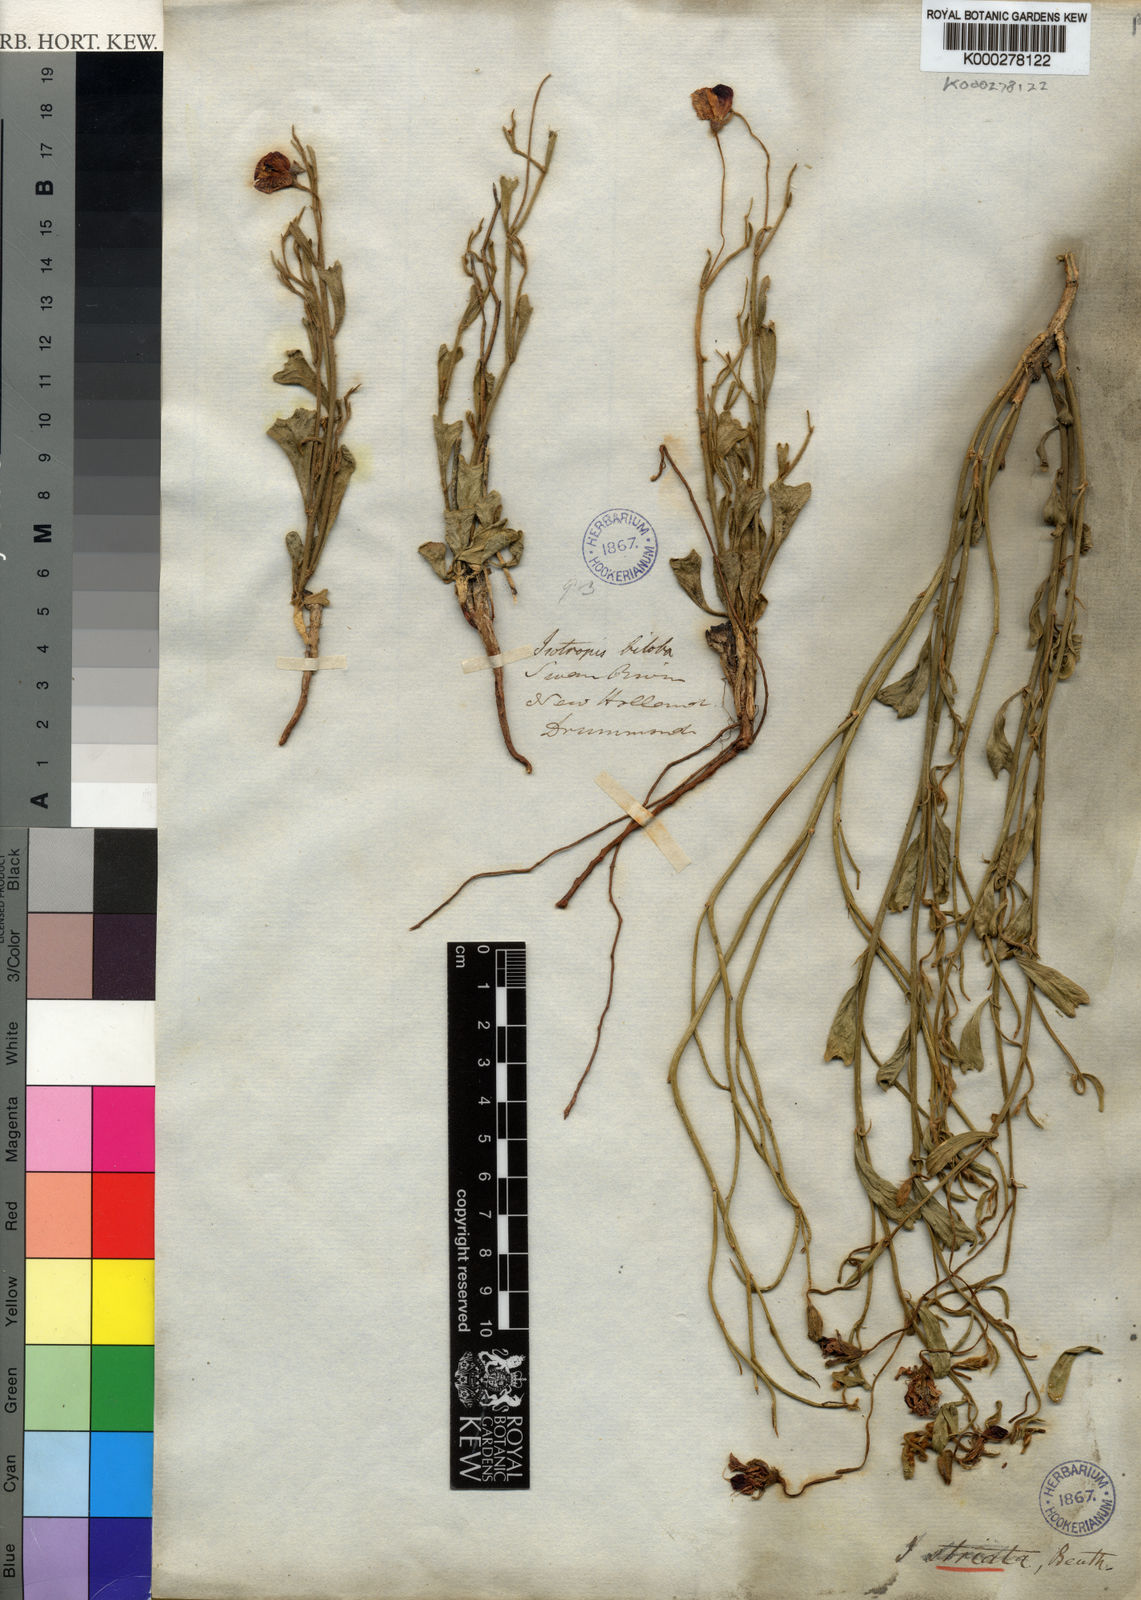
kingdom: Plantae
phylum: Tracheophyta
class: Magnoliopsida
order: Fabales
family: Fabaceae
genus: Isotropis
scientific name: Isotropis cuneifolia
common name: Granny bonnets
